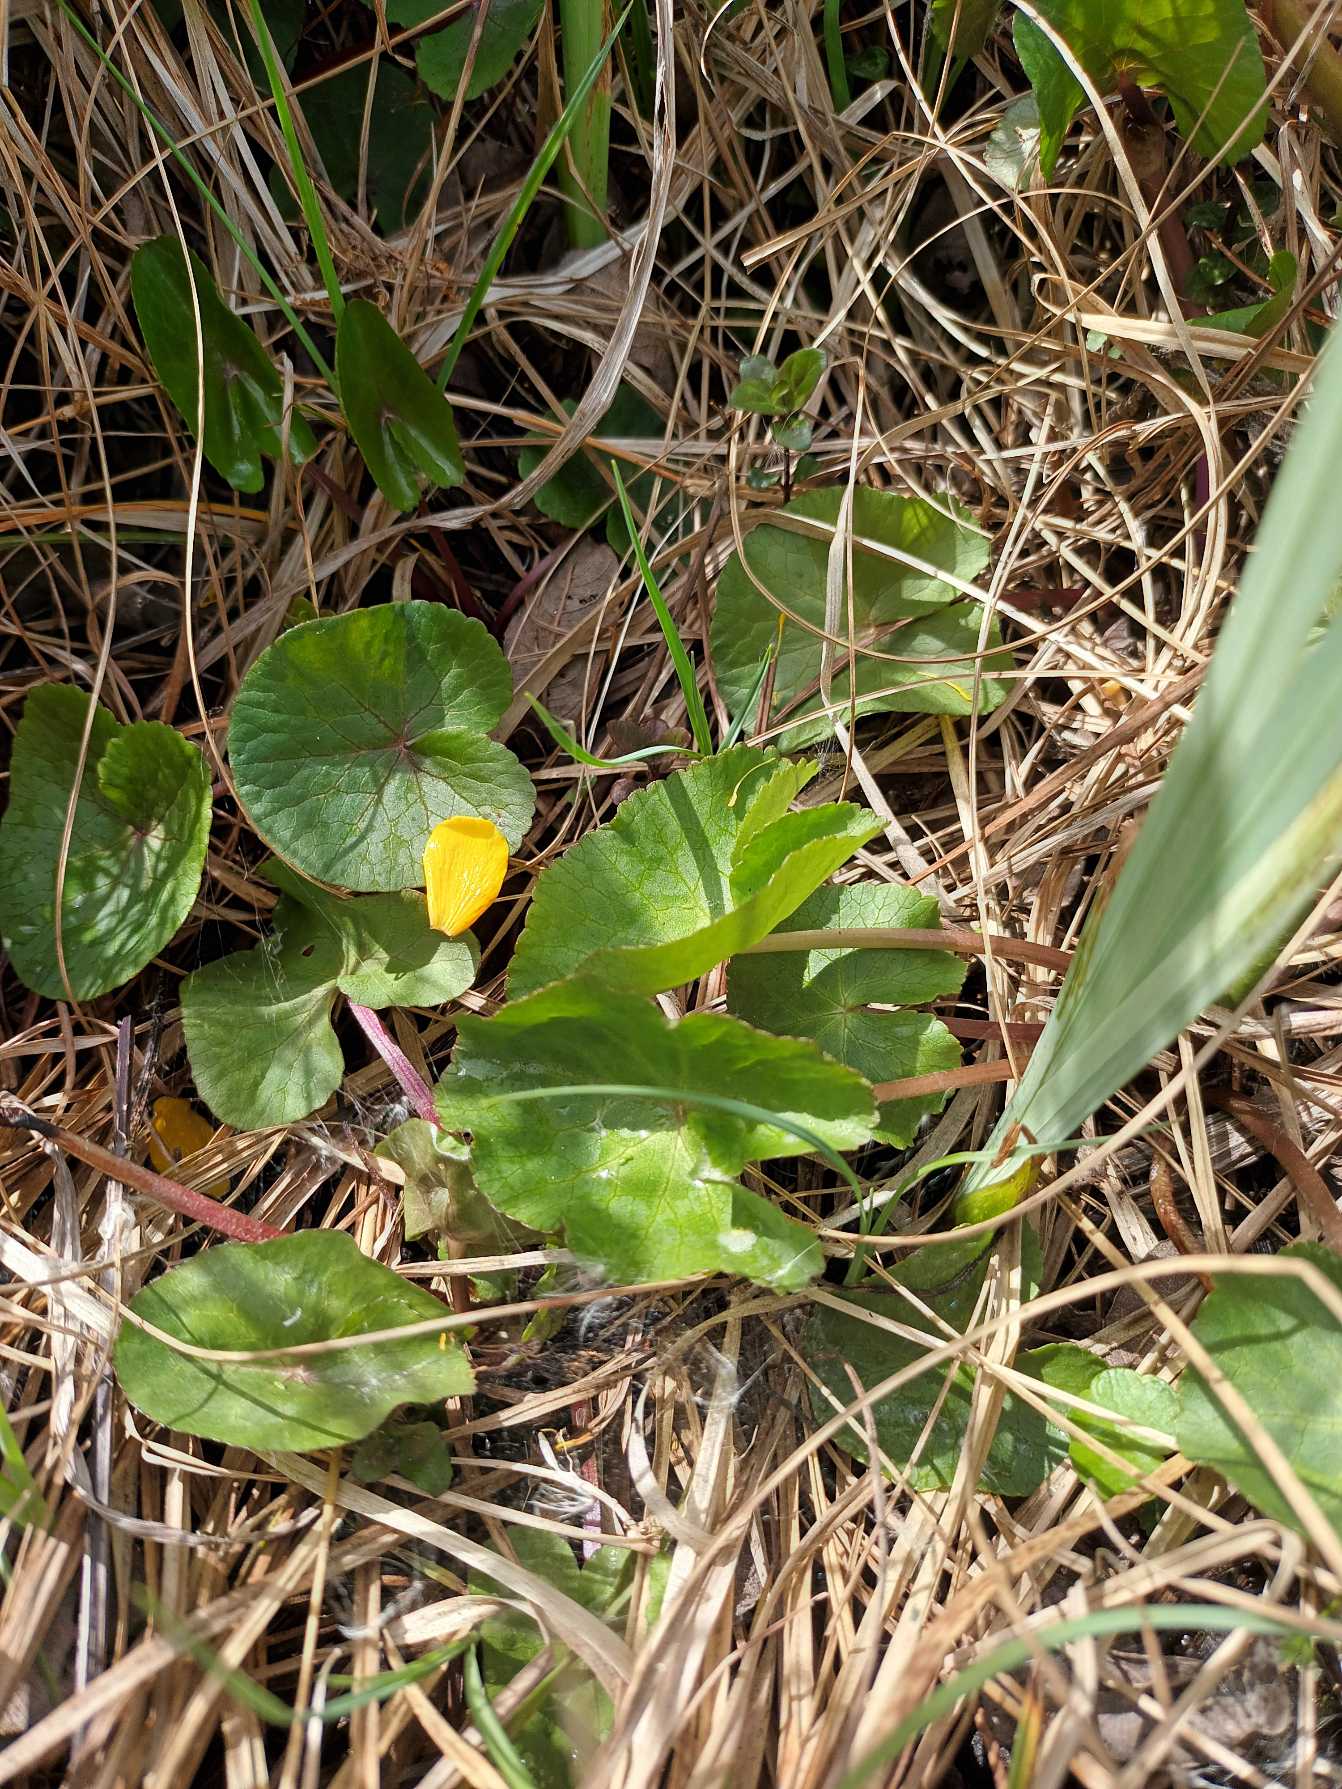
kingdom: Plantae
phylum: Tracheophyta
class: Magnoliopsida
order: Ranunculales
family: Ranunculaceae
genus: Caltha
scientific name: Caltha palustris
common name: Eng-kabbeleje
